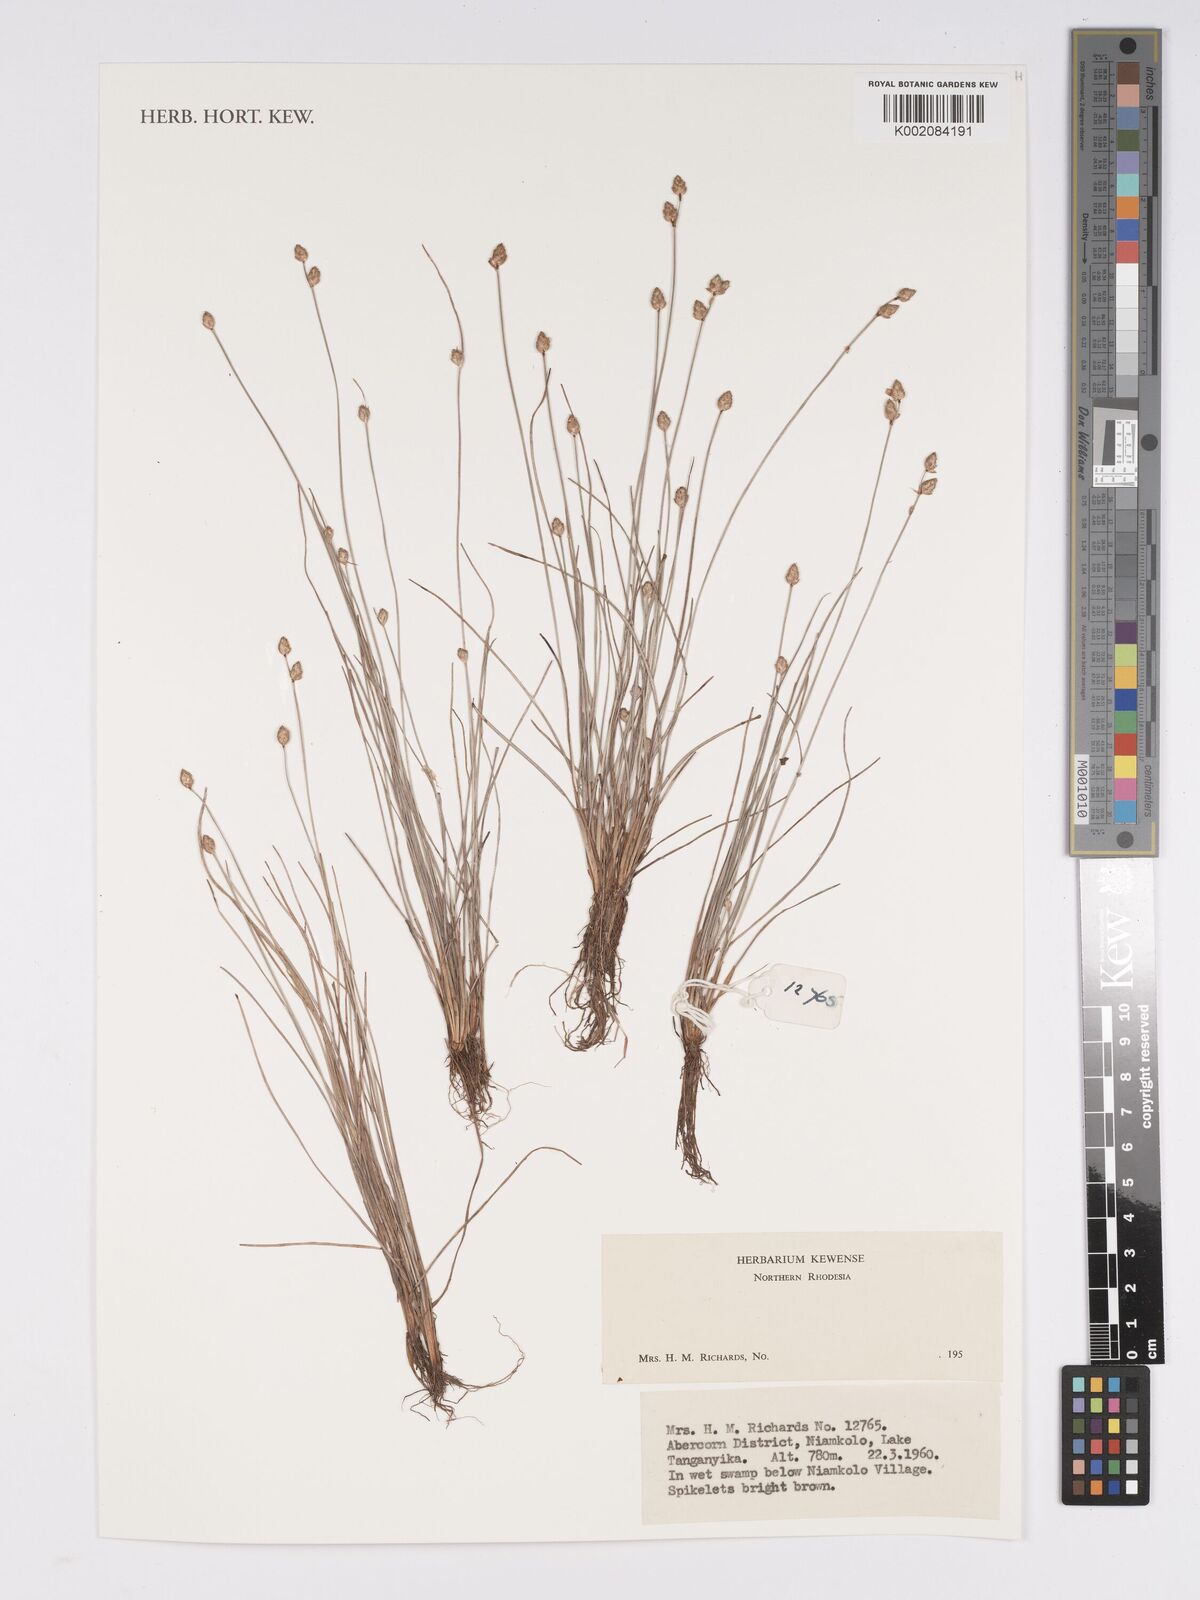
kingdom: Plantae
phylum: Tracheophyta
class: Liliopsida
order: Poales
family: Cyperaceae
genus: Bulbostylis
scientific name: Bulbostylis
